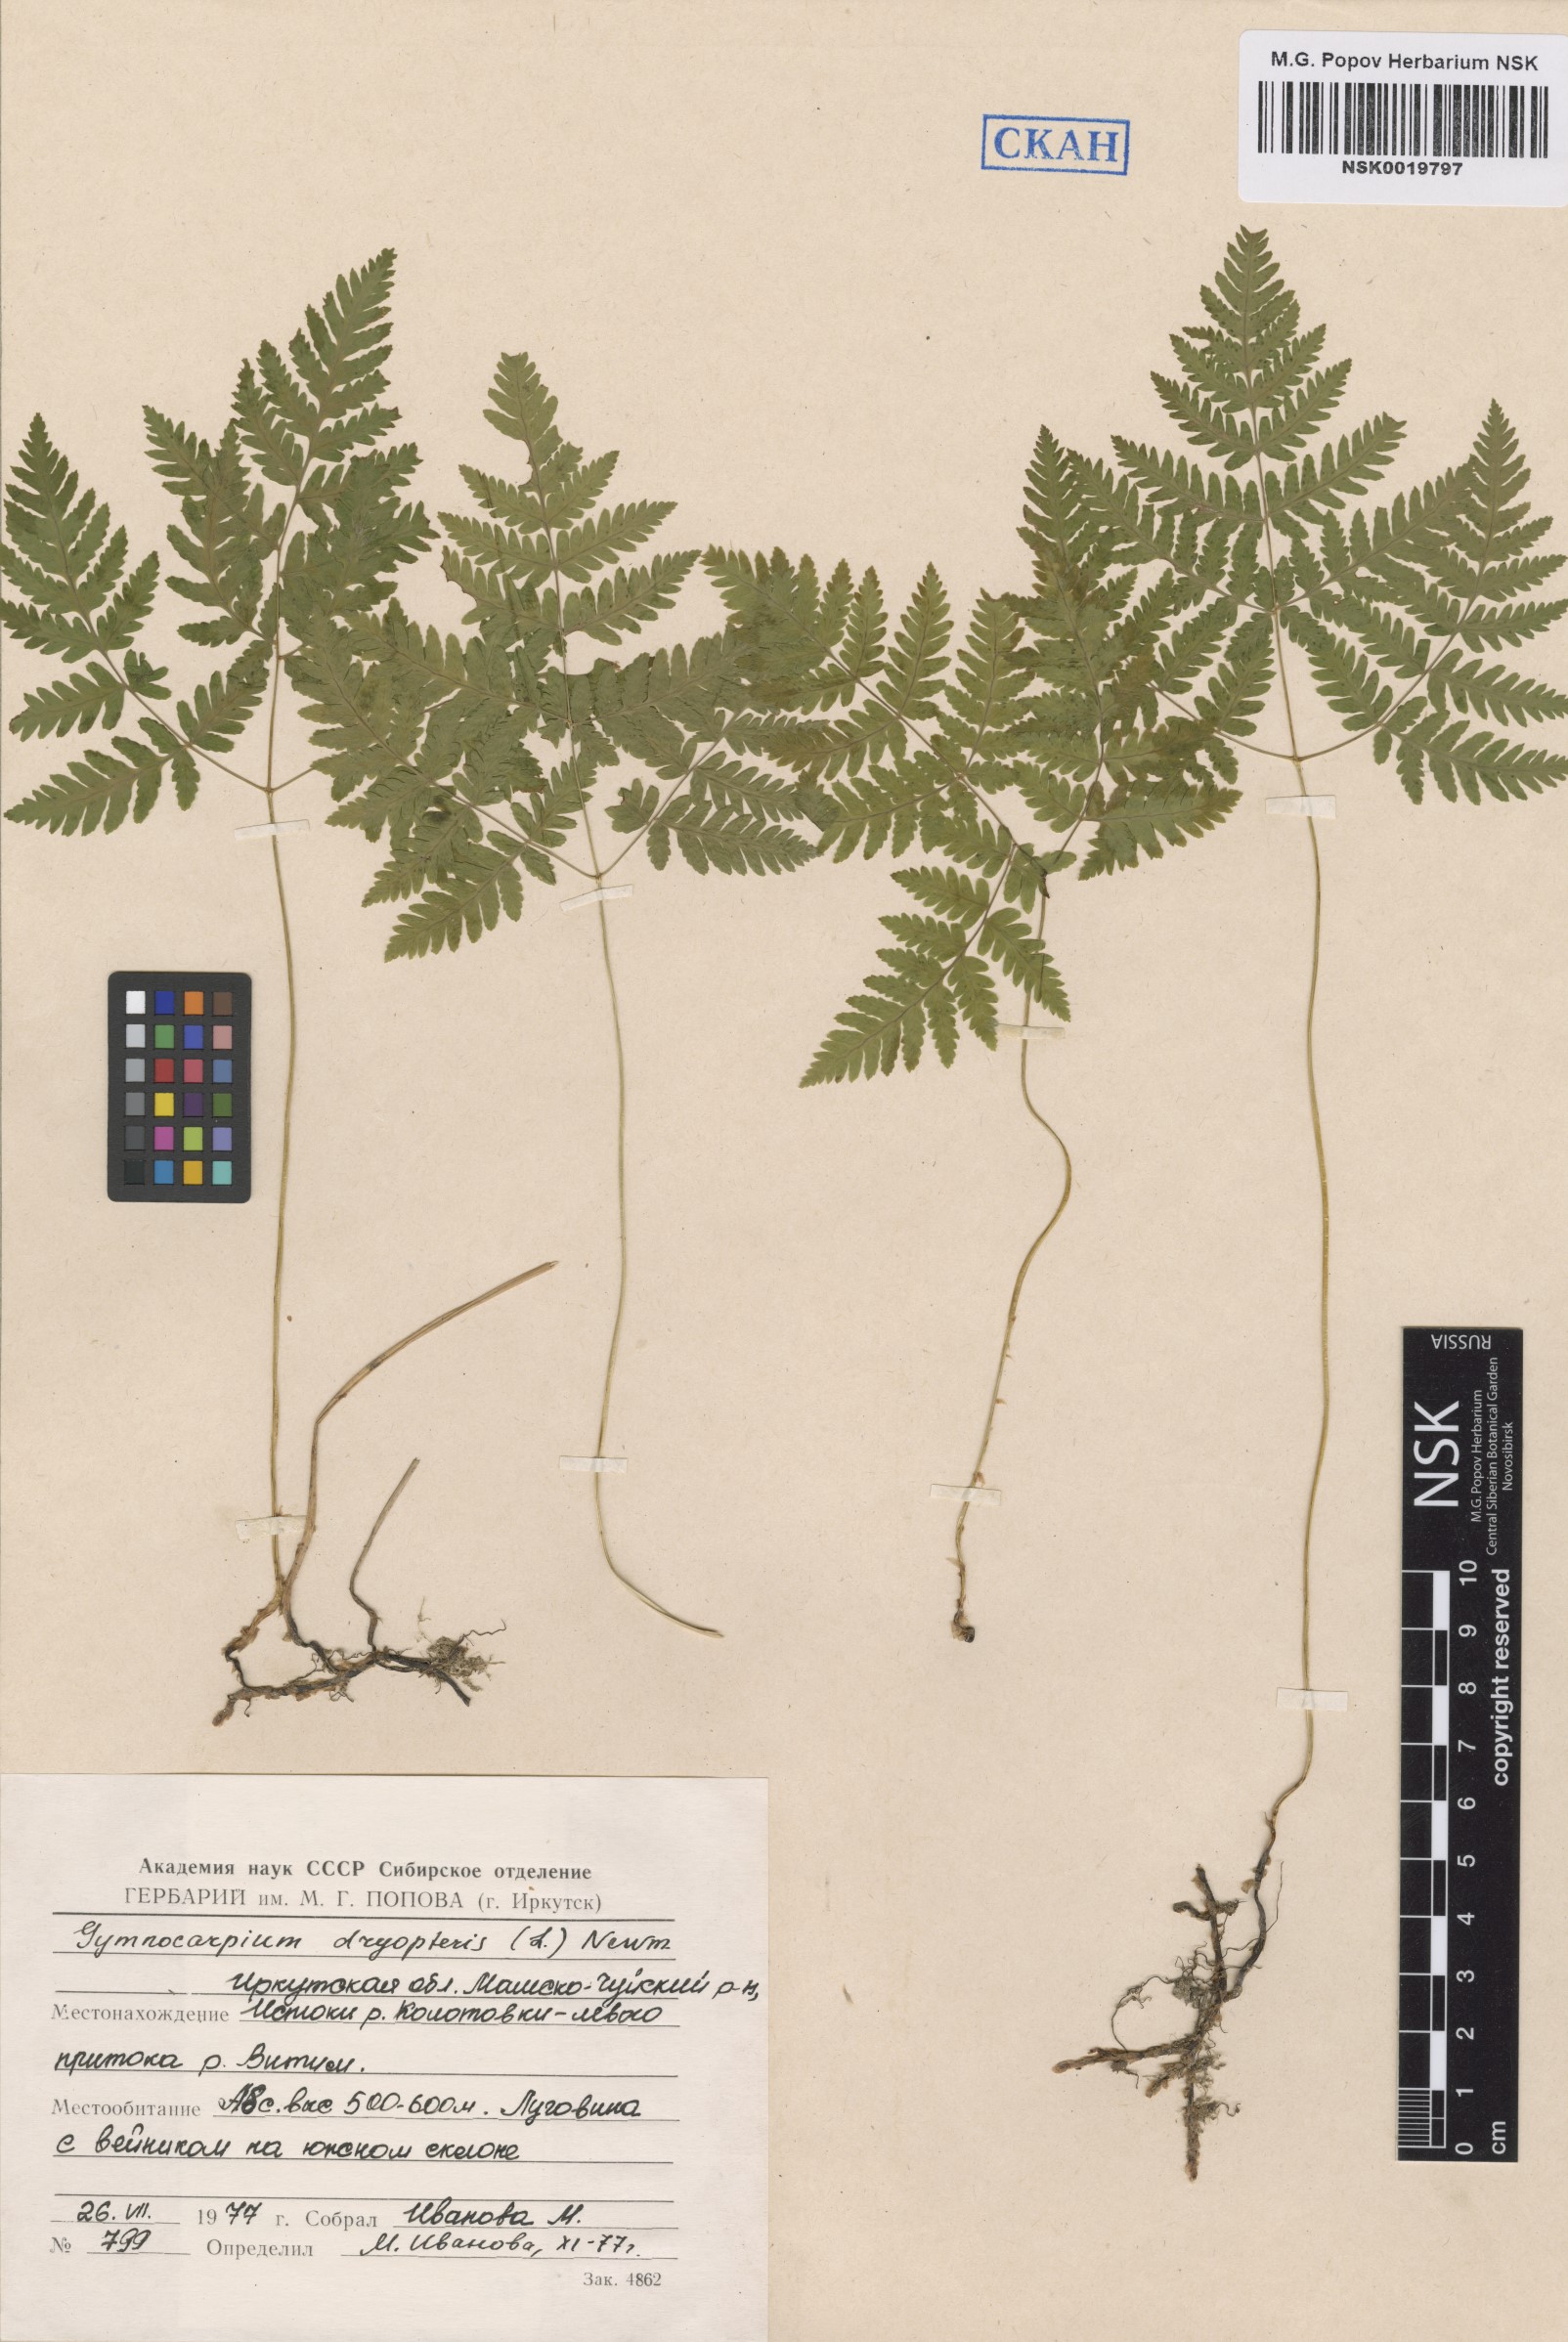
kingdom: Plantae
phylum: Tracheophyta
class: Polypodiopsida
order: Polypodiales
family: Cystopteridaceae
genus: Gymnocarpium
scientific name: Gymnocarpium dryopteris
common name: Oak fern
